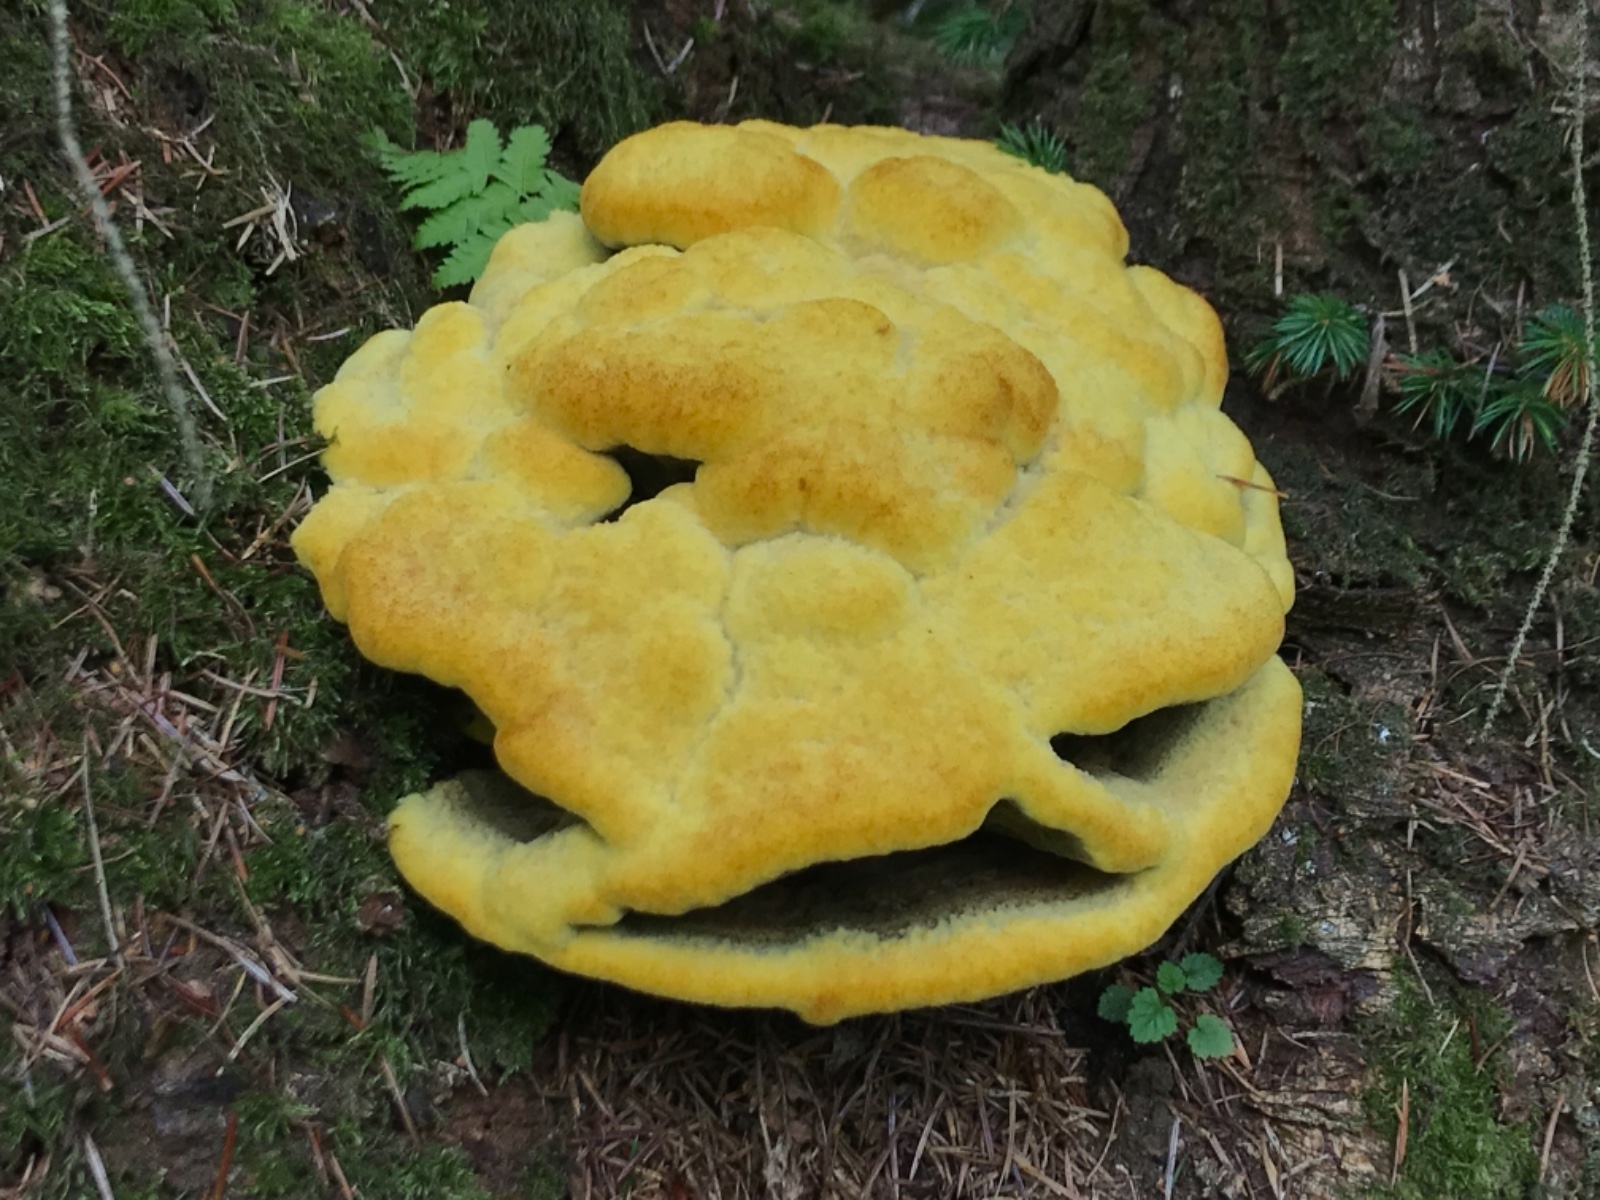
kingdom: Fungi
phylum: Basidiomycota
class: Agaricomycetes
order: Polyporales
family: Laetiporaceae
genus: Phaeolus
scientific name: Phaeolus schweinitzii
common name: brunporesvamp
